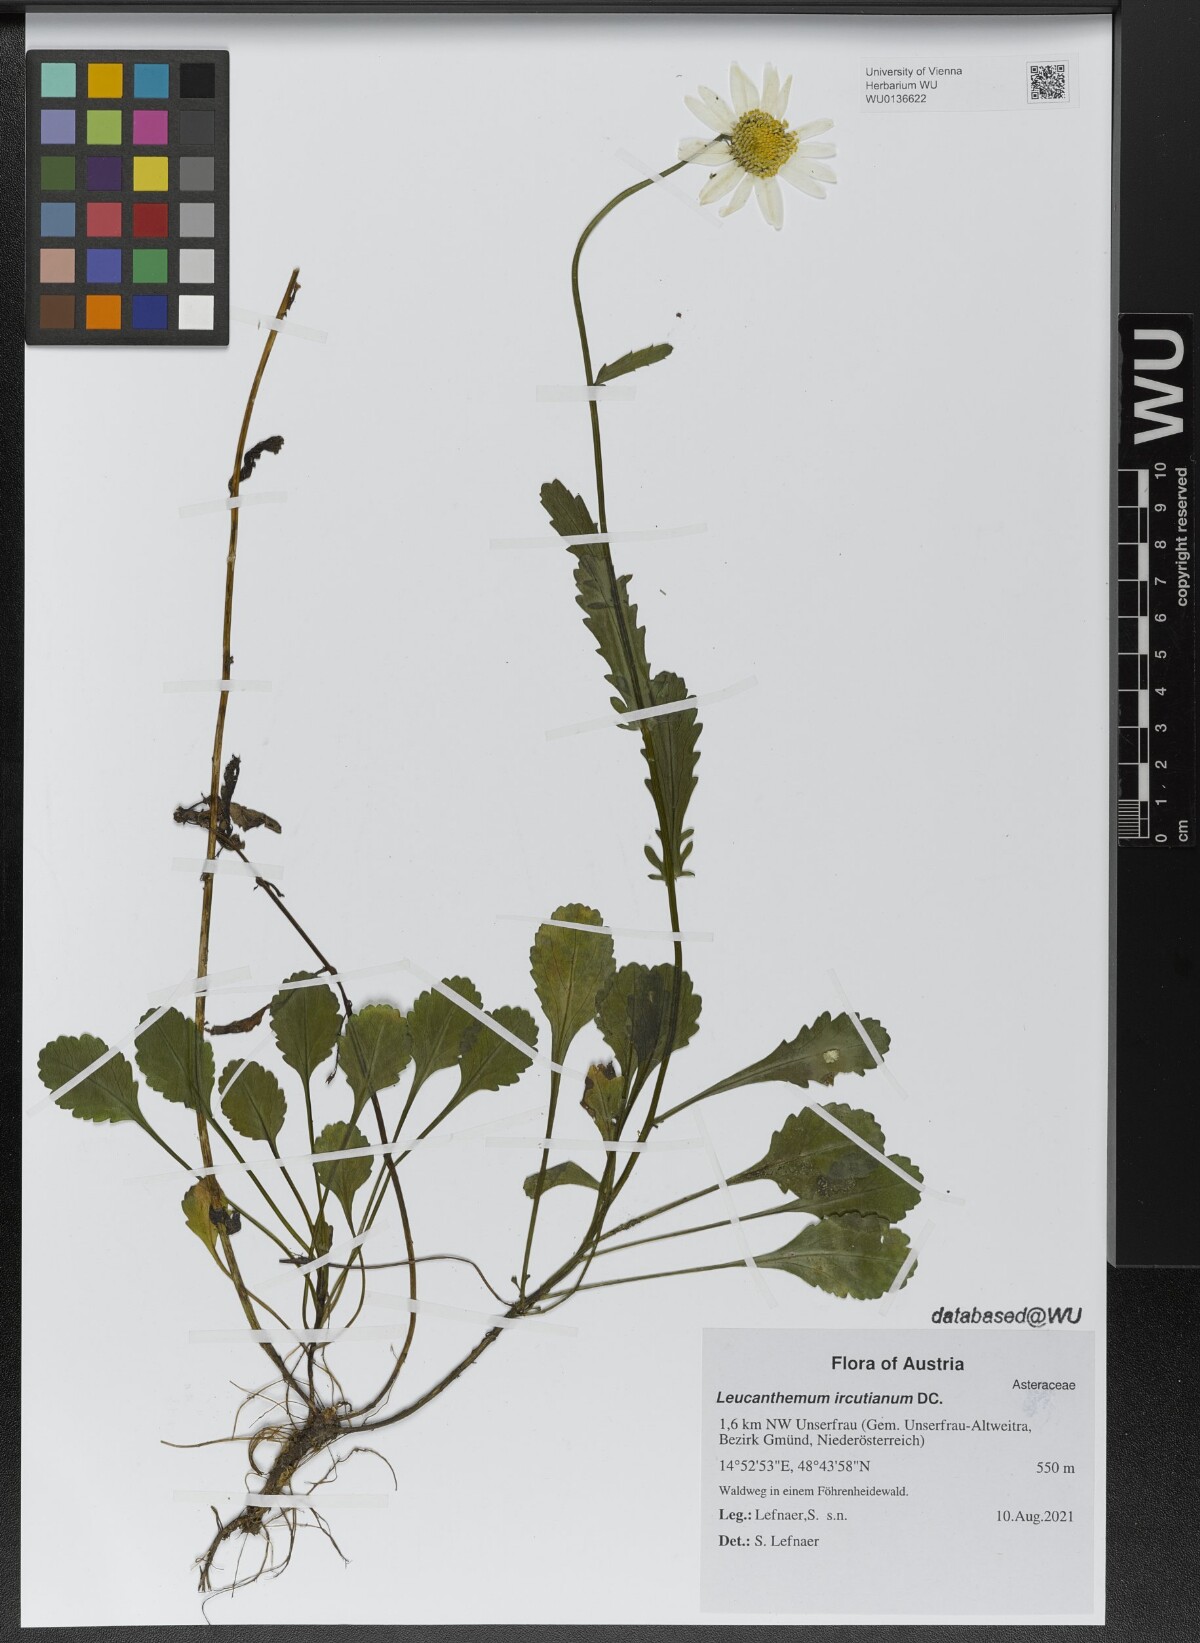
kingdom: Plantae
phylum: Tracheophyta
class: Magnoliopsida
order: Asterales
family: Asteraceae
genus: Leucanthemum
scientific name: Leucanthemum ircutianum
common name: Daisy
